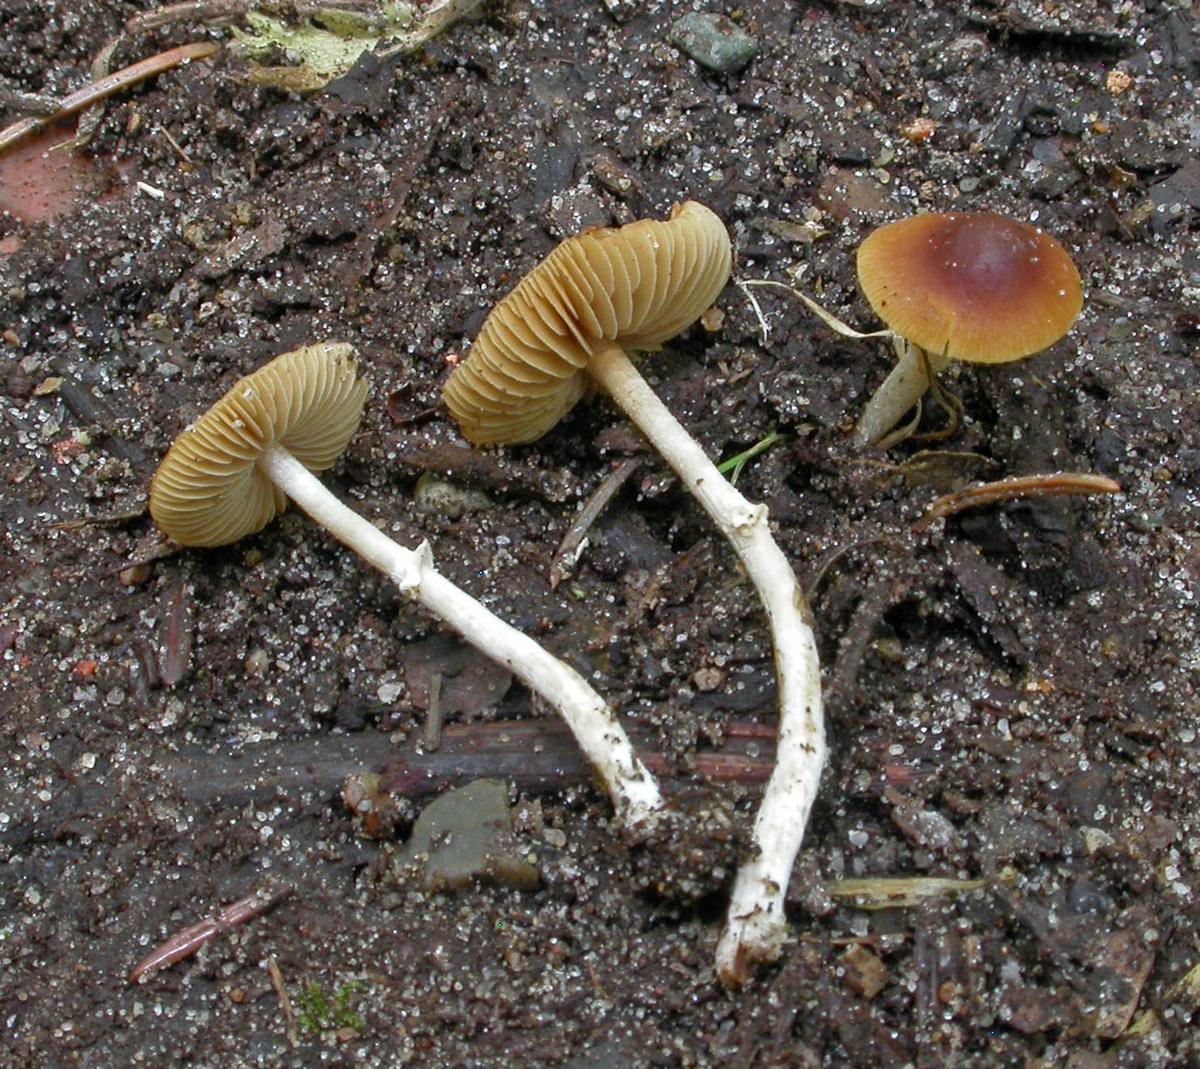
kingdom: Fungi
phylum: Basidiomycota
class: Agaricomycetes
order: Agaricales
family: Bolbitiaceae
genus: Conocybe
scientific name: Conocybe arrhenii
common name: ring-dansehat
